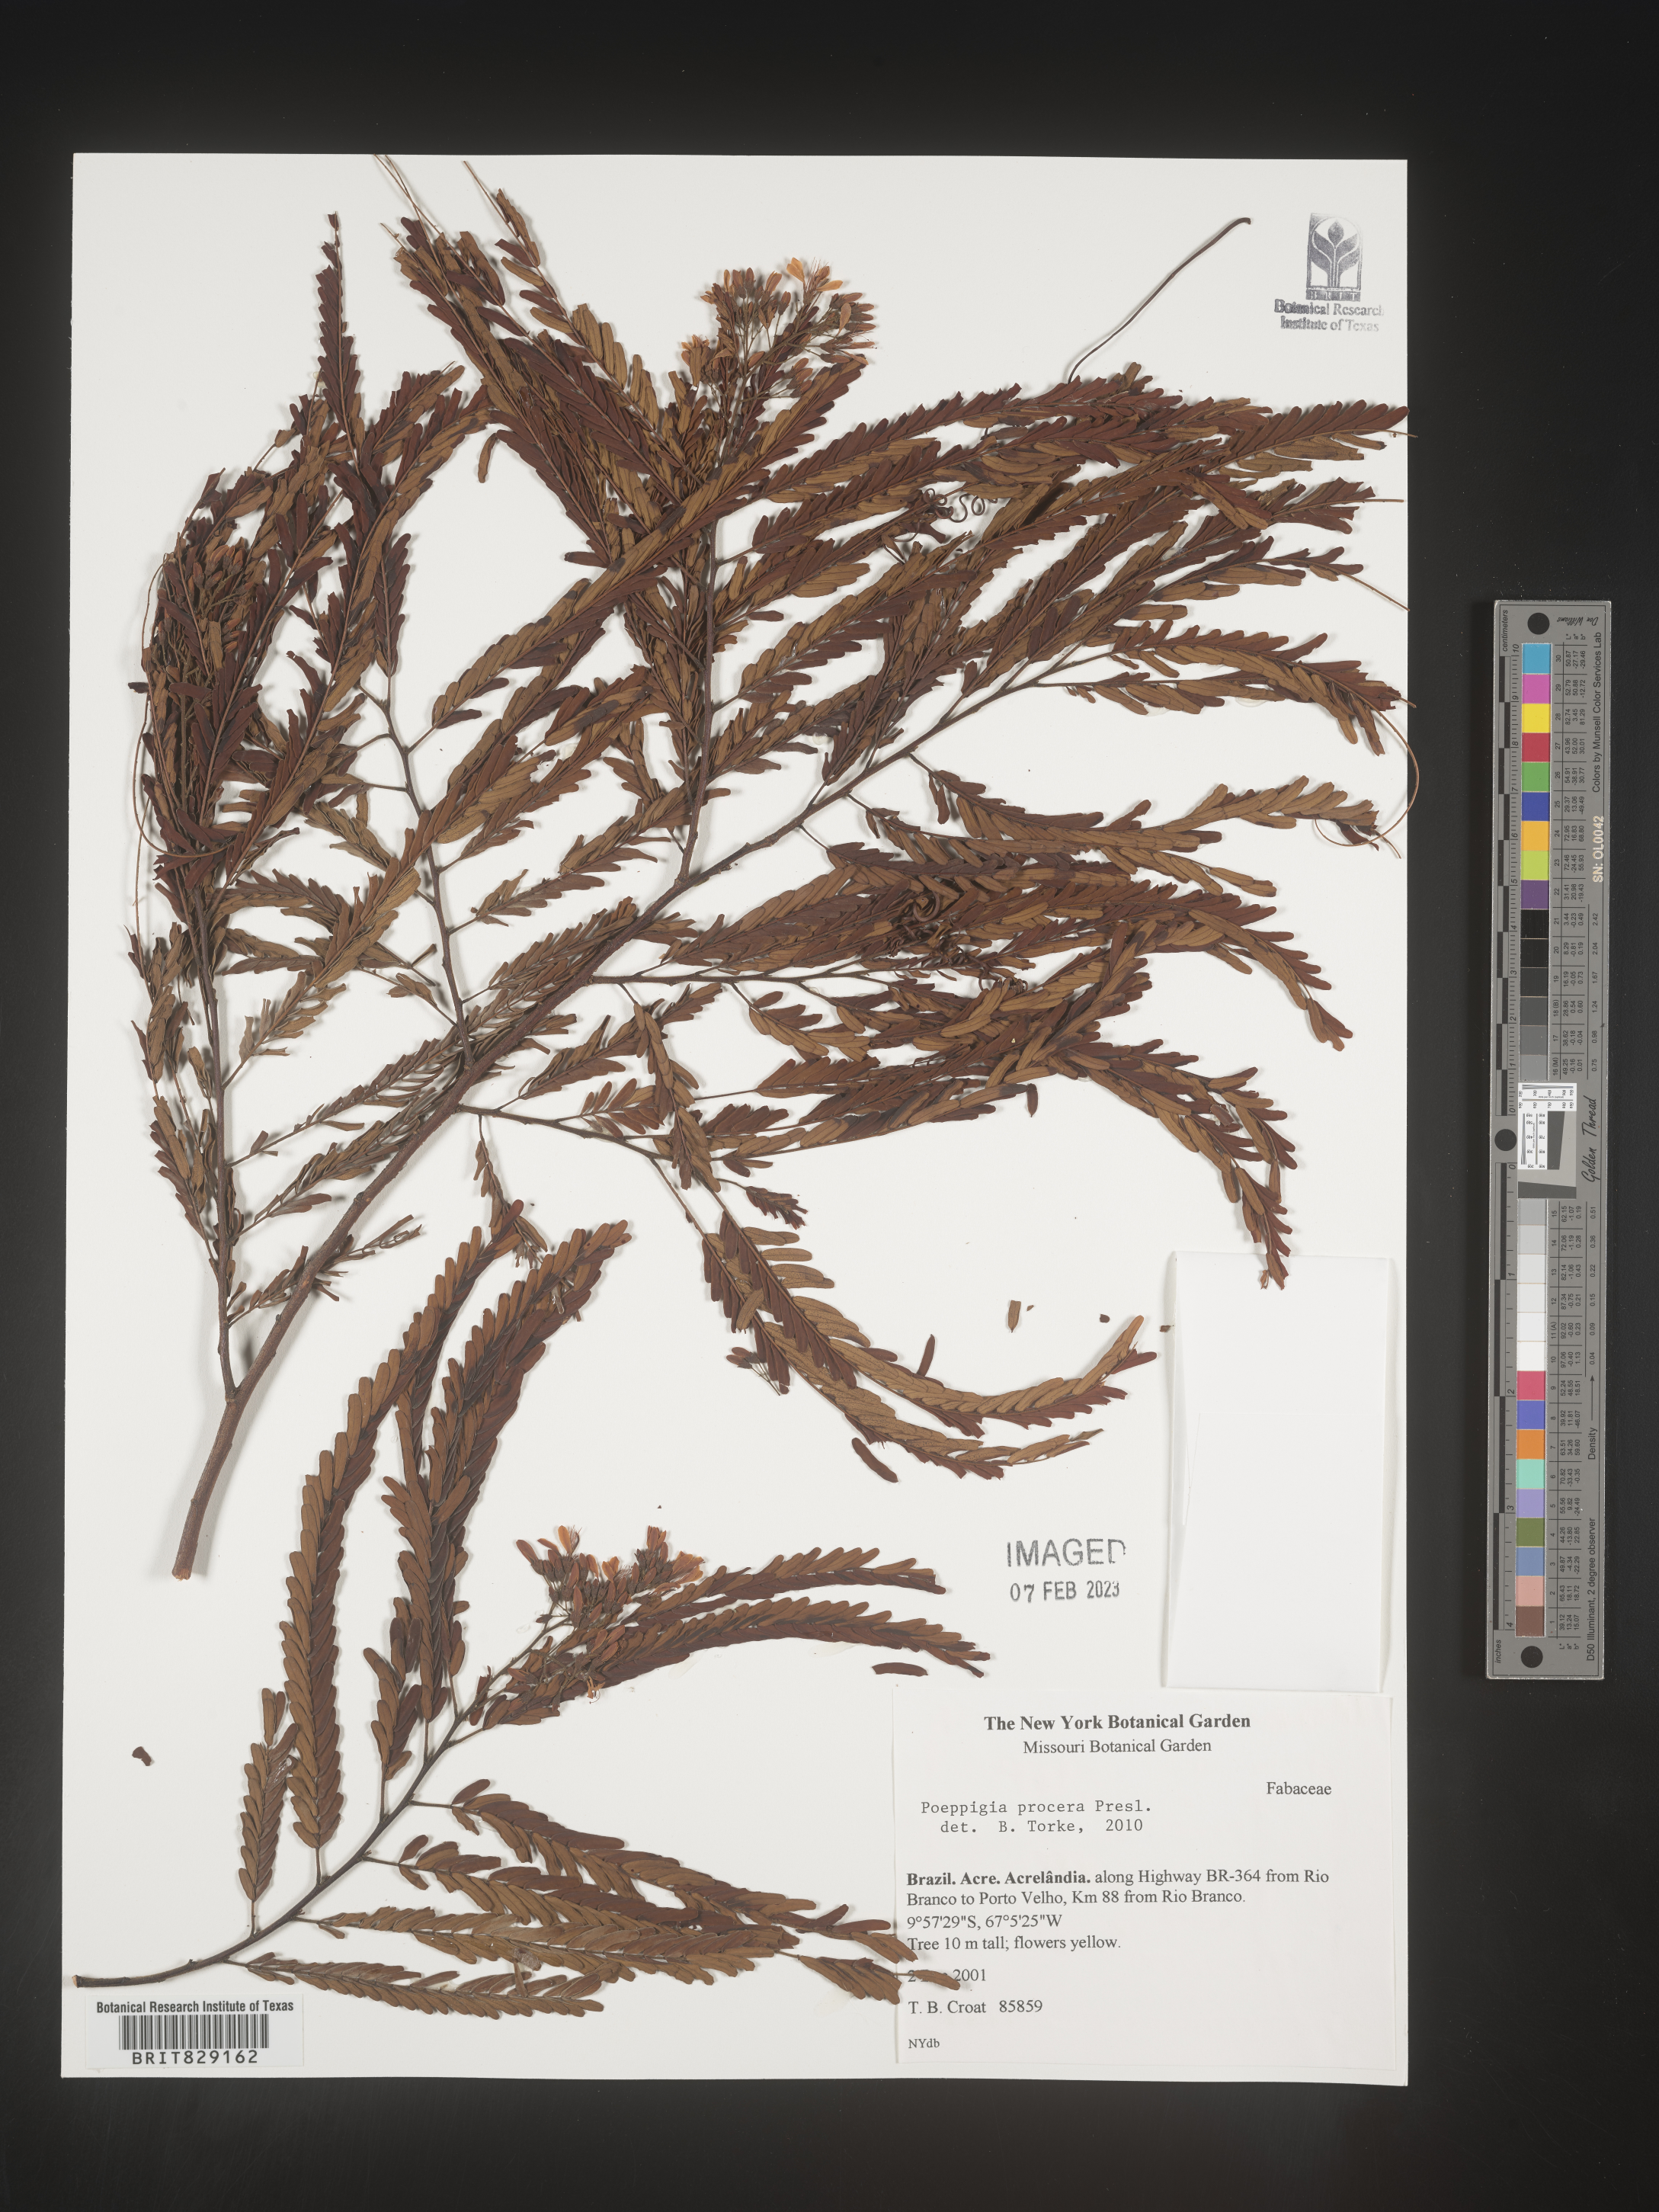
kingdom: Plantae
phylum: Tracheophyta
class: Magnoliopsida
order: Fabales
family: Fabaceae
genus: Poeppigia
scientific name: Poeppigia
